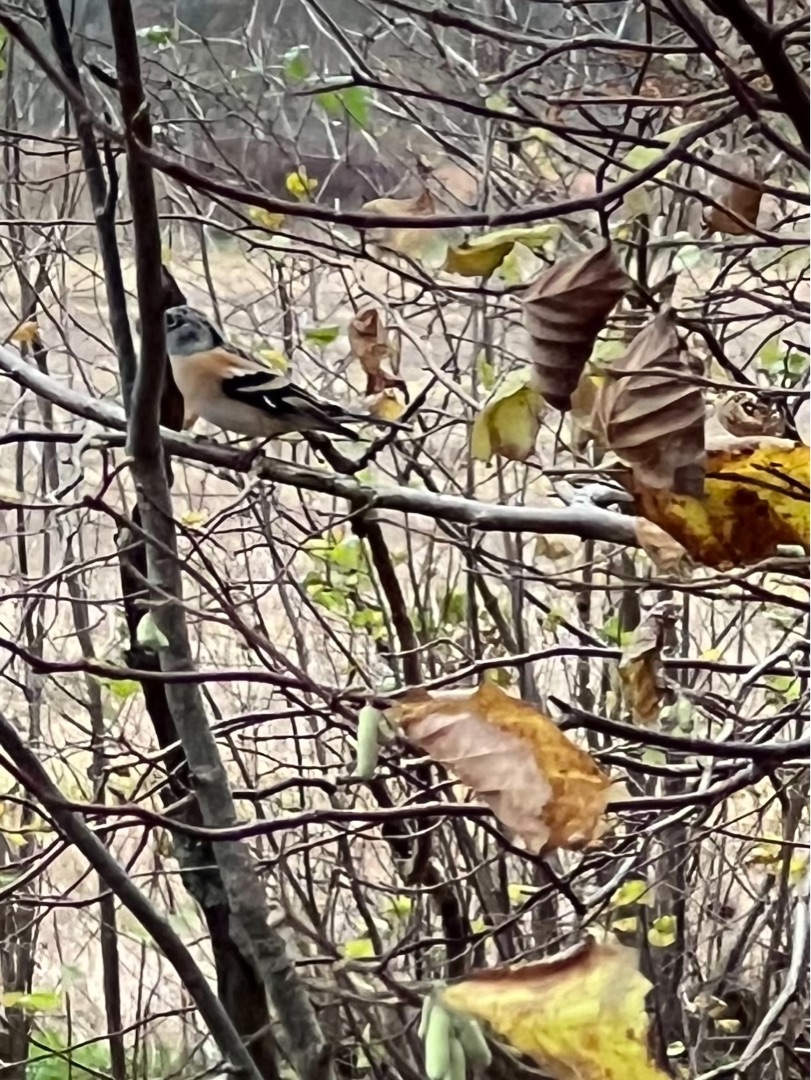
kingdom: Animalia
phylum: Chordata
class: Aves
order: Passeriformes
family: Fringillidae
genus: Fringilla
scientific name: Fringilla montifringilla
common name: Kvækerfinke
